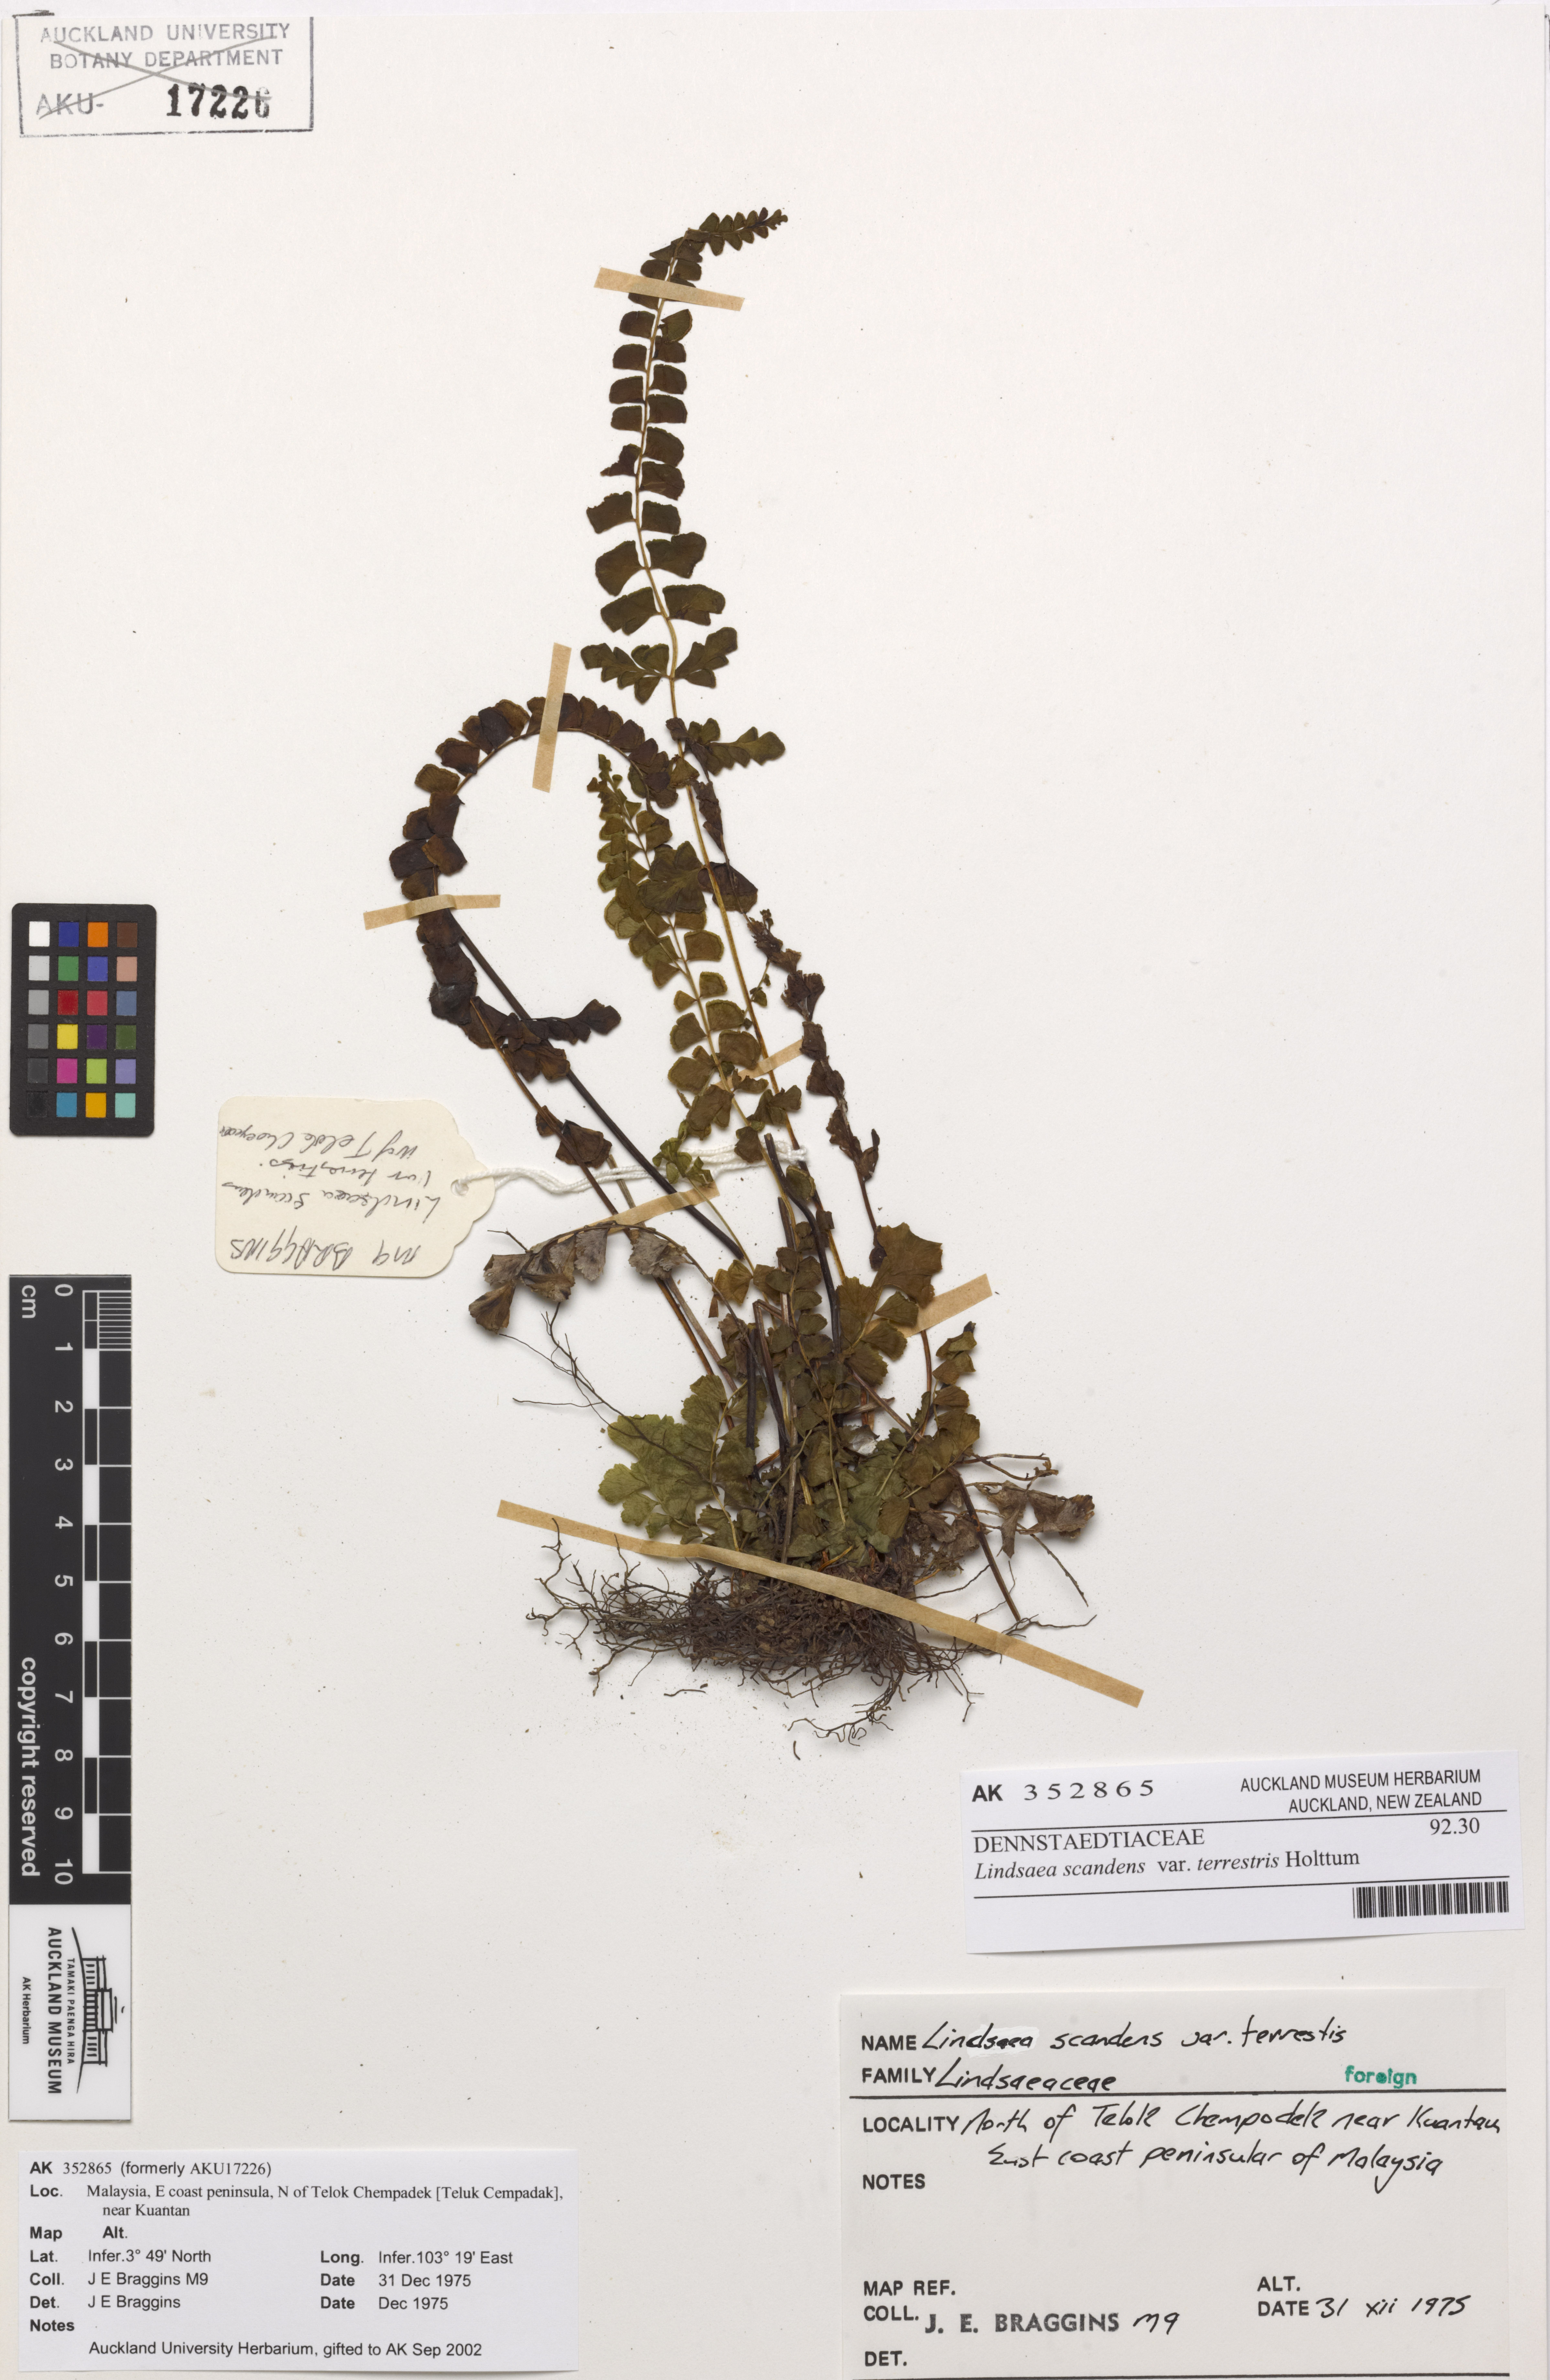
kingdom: Plantae
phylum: Tracheophyta
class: Polypodiopsida
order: Polypodiales
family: Lindsaeaceae
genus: Lindsaea
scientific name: Lindsaea doryphora
